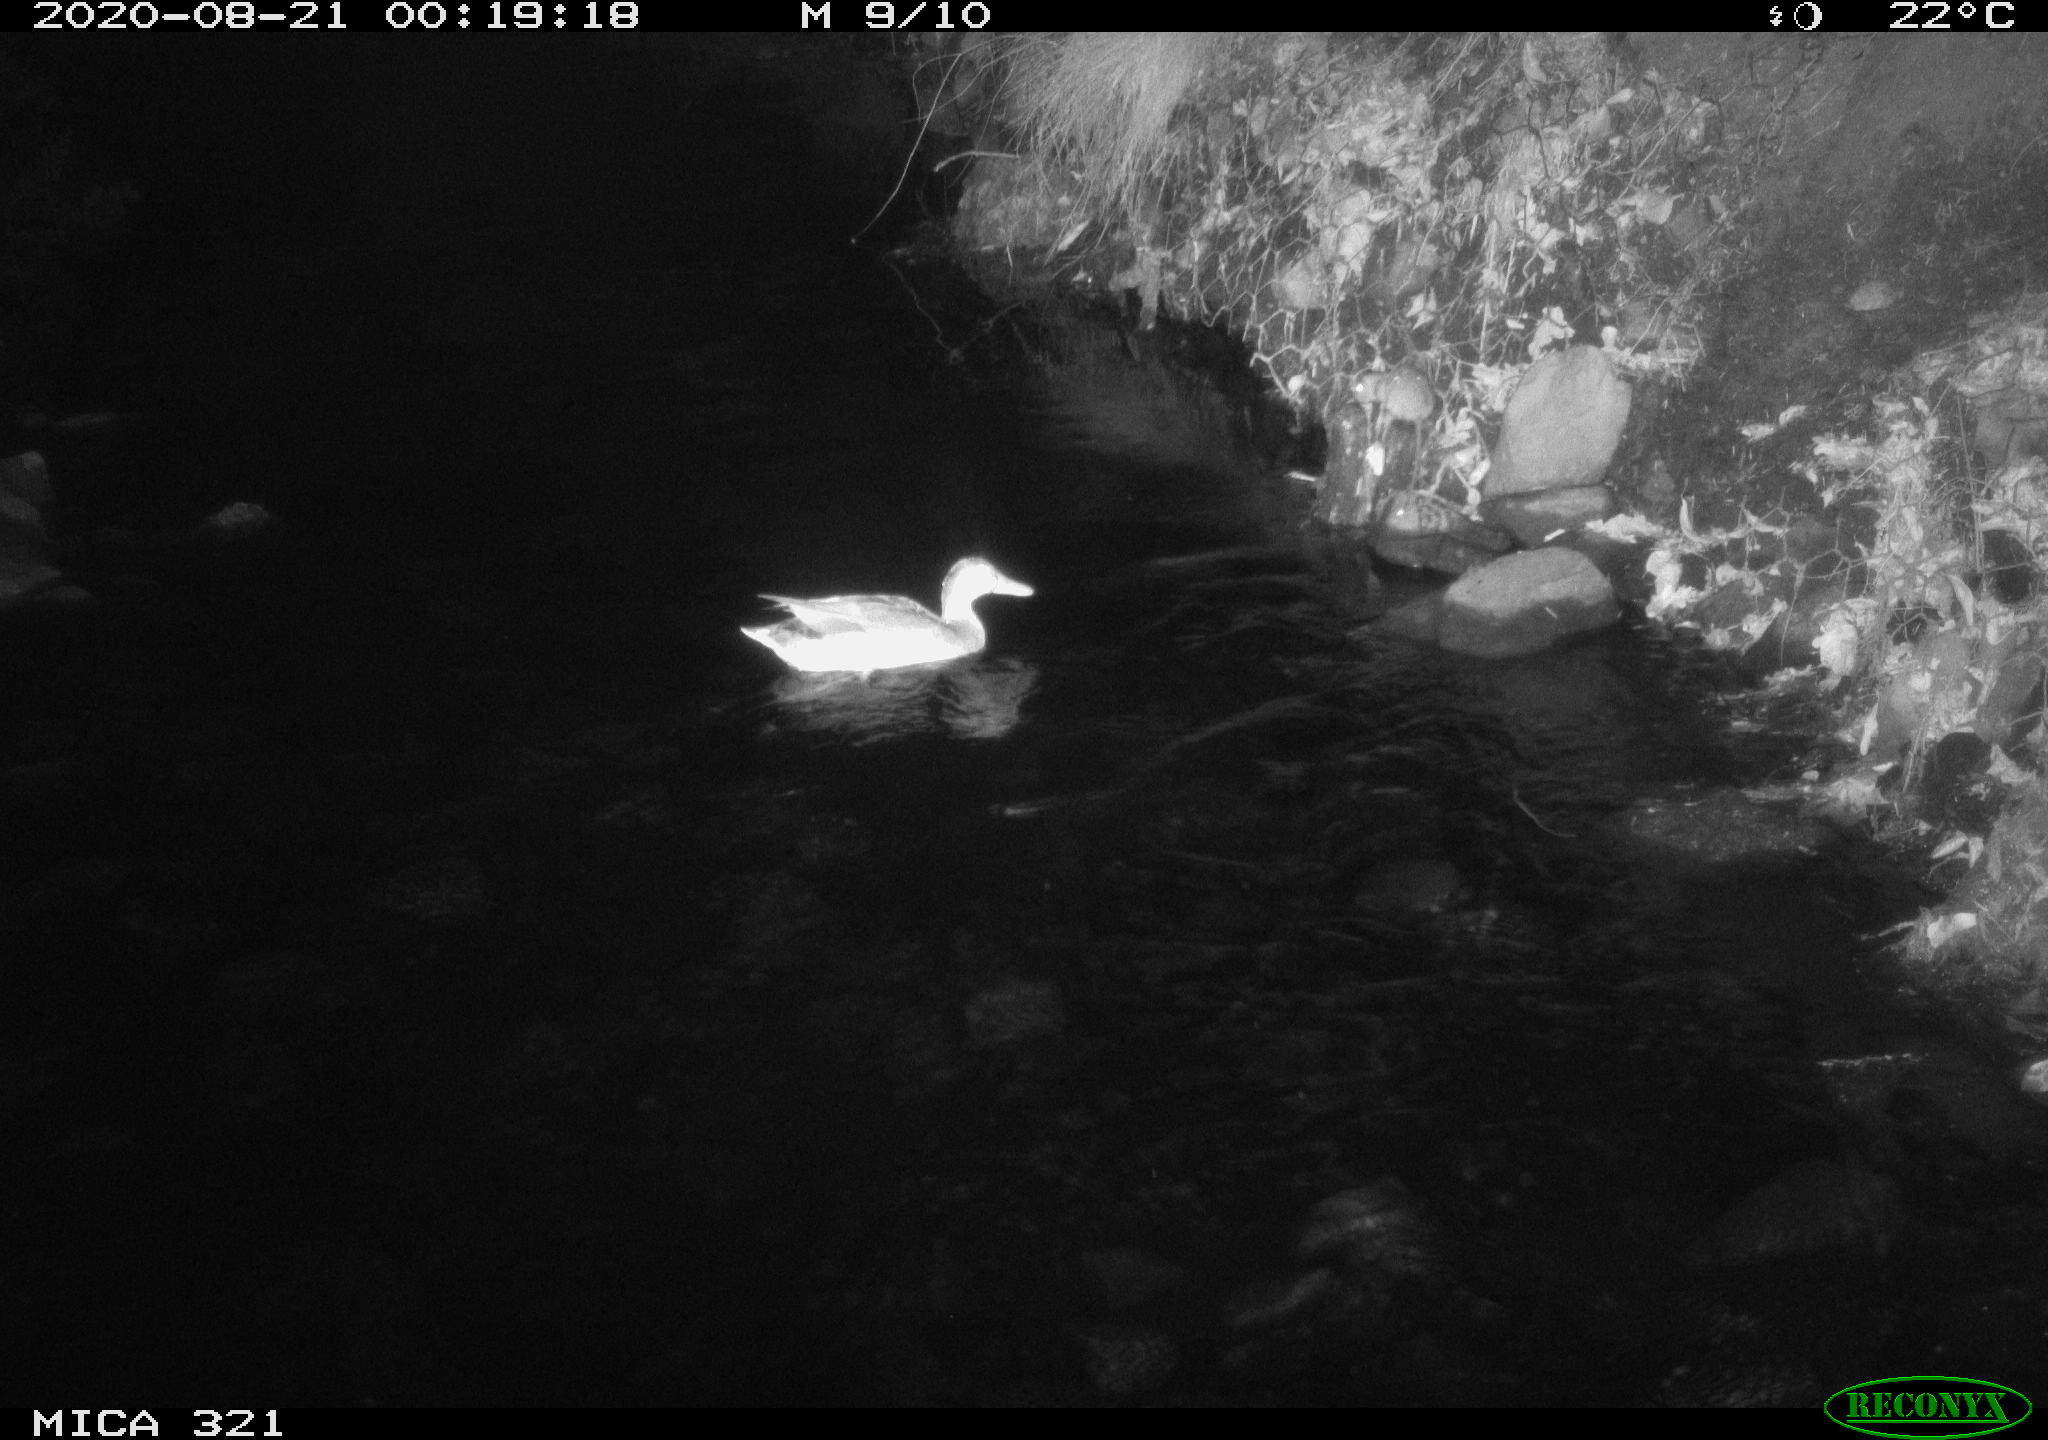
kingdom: Animalia
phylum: Chordata
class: Mammalia
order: Rodentia
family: Muridae
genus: Rattus
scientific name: Rattus norvegicus
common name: Brown rat
